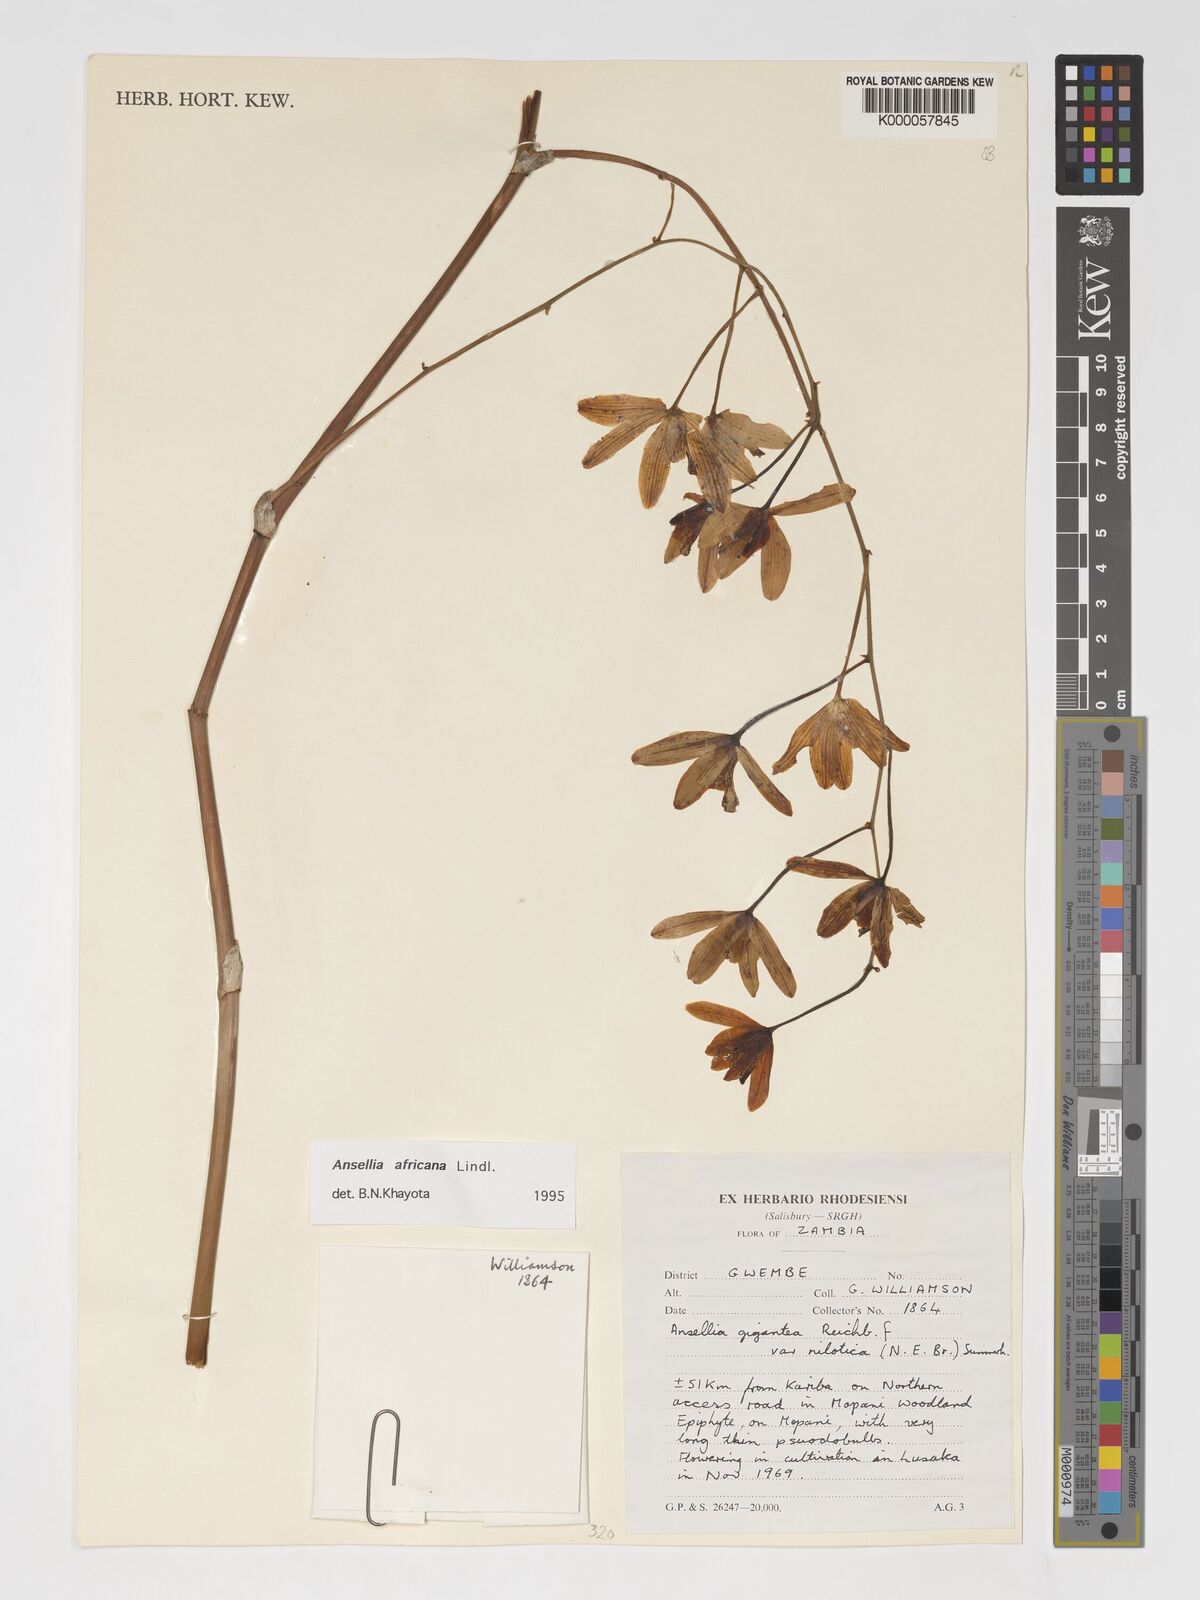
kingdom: Plantae
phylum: Tracheophyta
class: Liliopsida
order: Asparagales
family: Orchidaceae
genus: Ansellia
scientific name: Ansellia africana
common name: African ansellia
